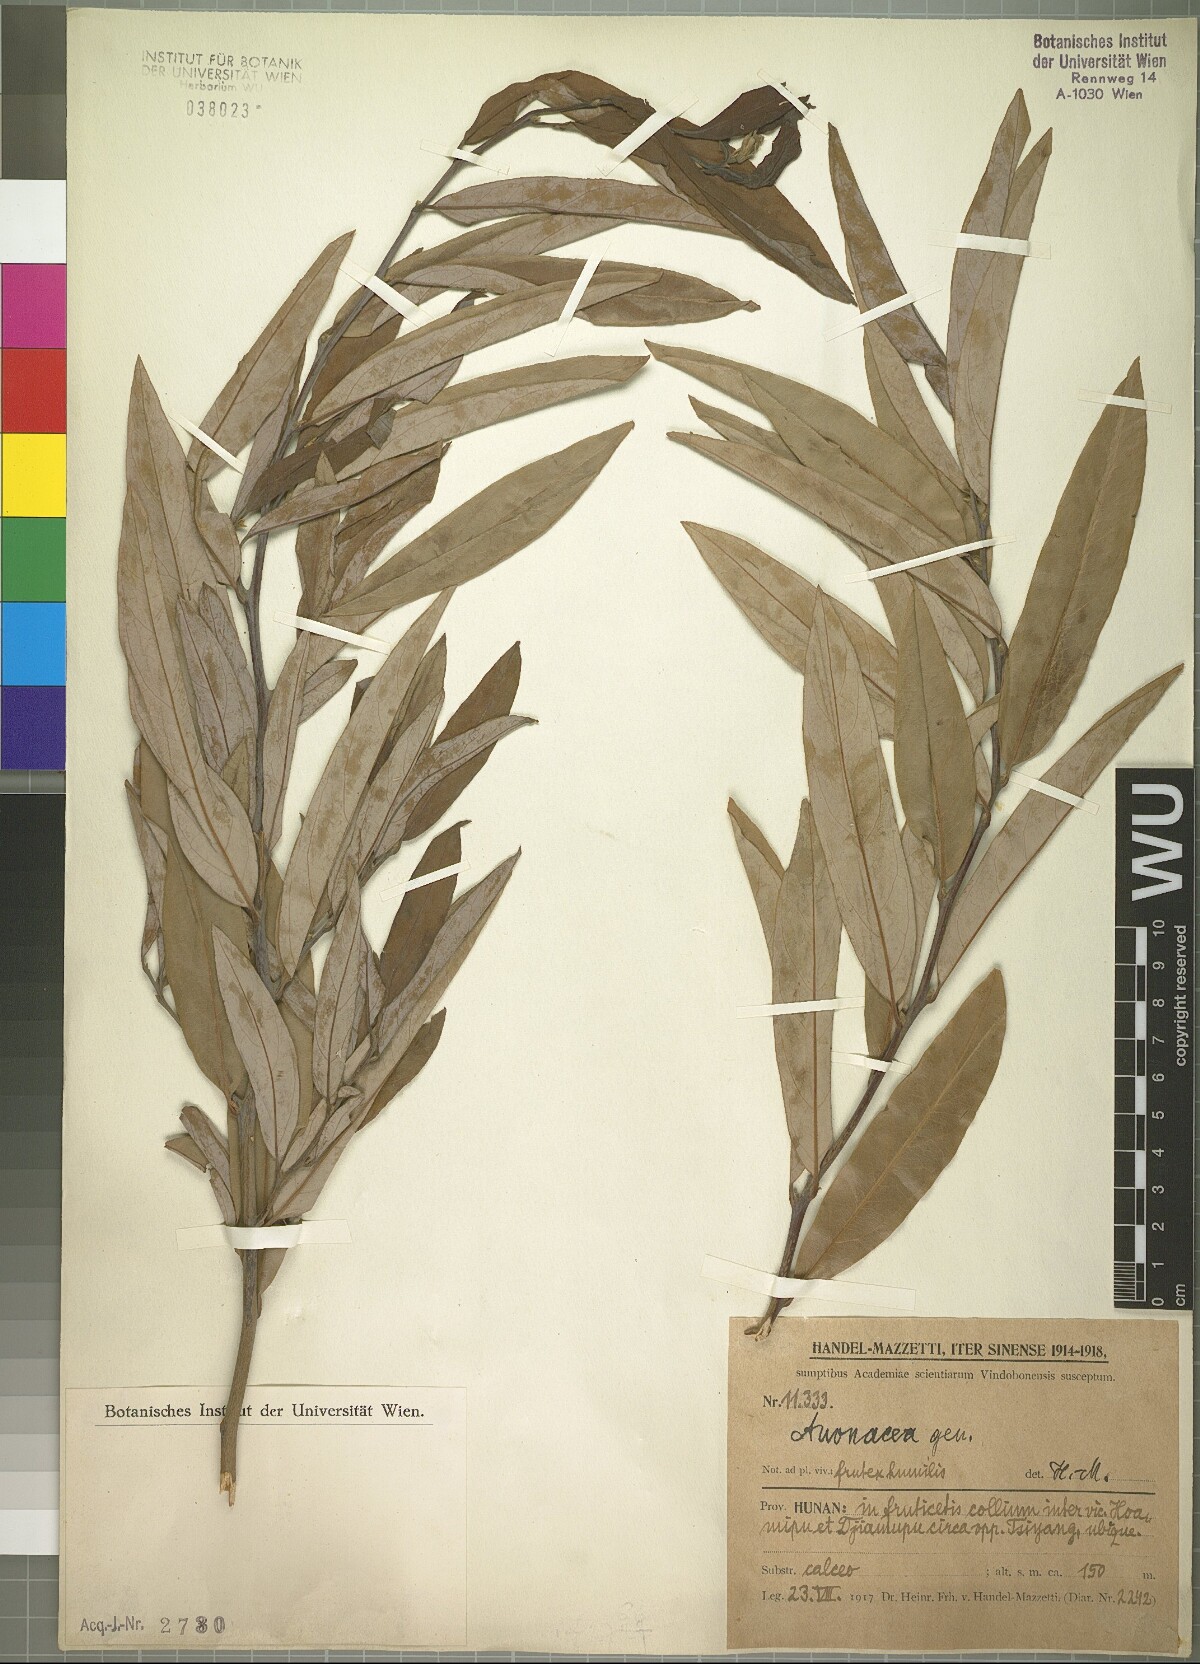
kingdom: Plantae
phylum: Tracheophyta
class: Magnoliopsida
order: Magnoliales
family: Annonaceae
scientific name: Annonaceae
